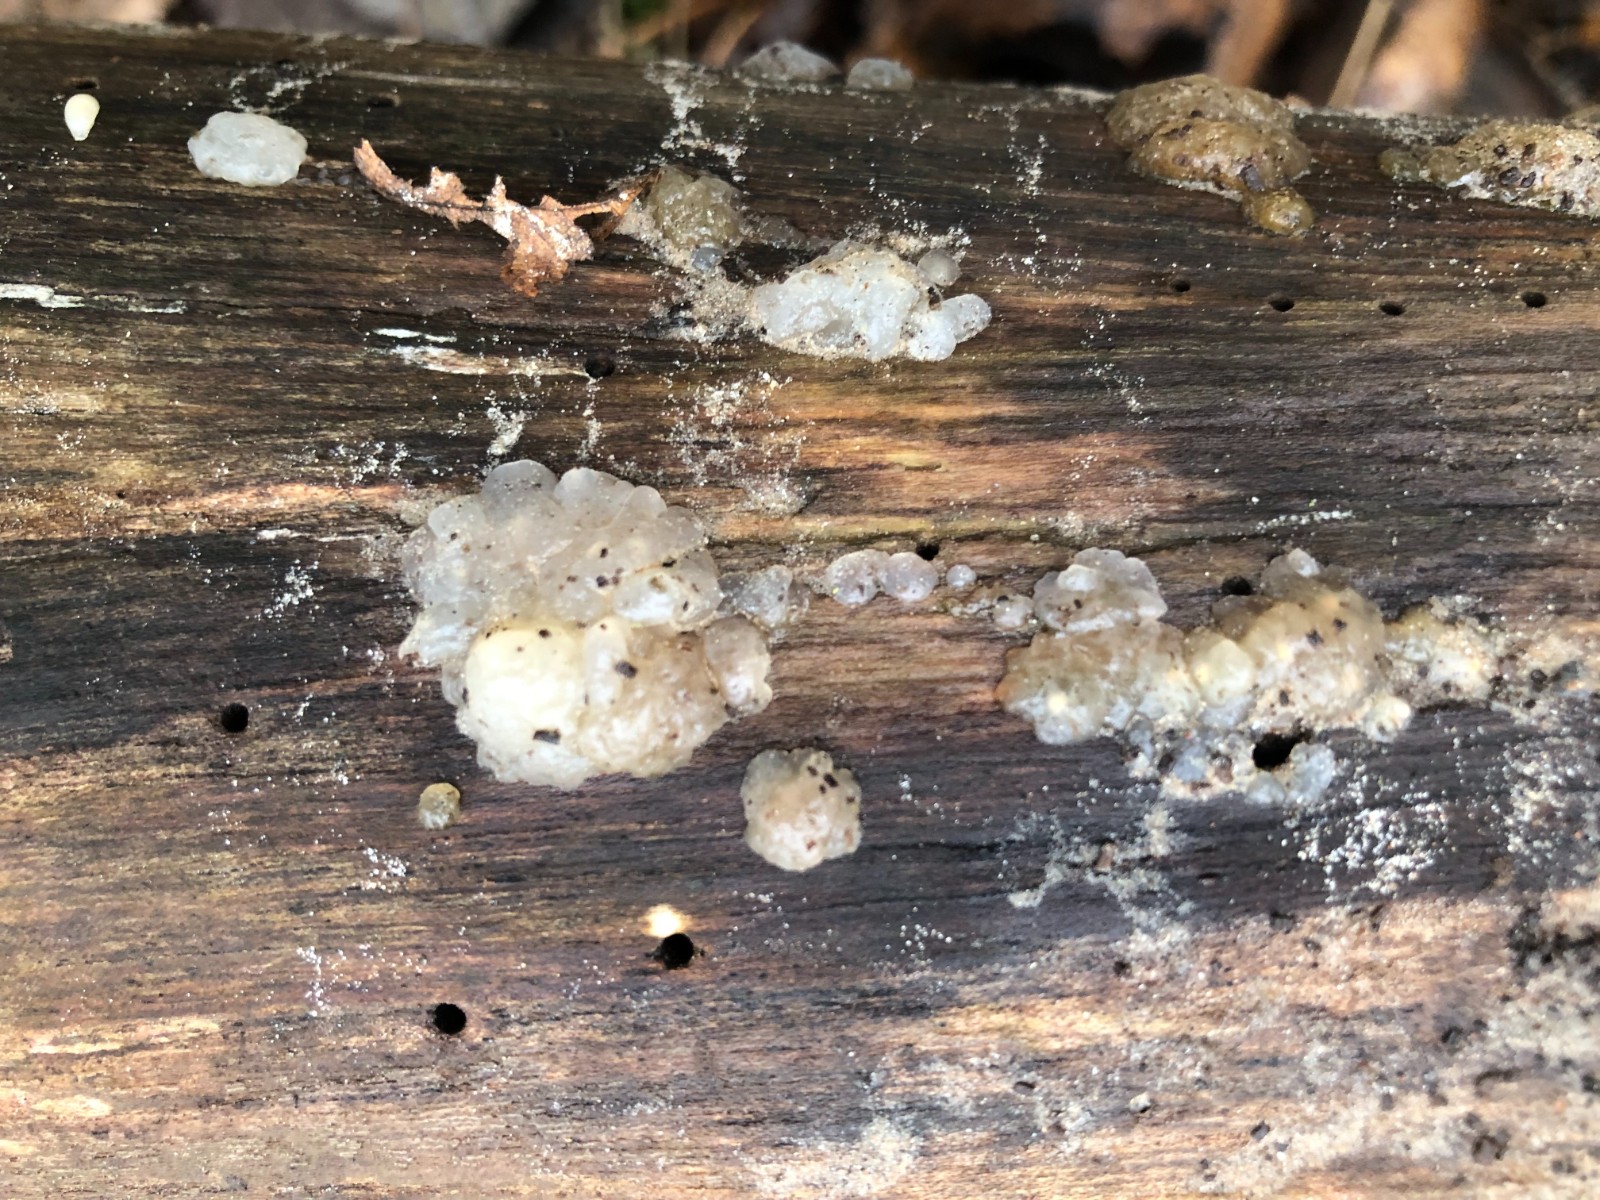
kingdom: Fungi
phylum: Basidiomycota
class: Agaricomycetes
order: Auriculariales
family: Hyaloriaceae
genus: Myxarium
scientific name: Myxarium nucleatum
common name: klar bævretop
